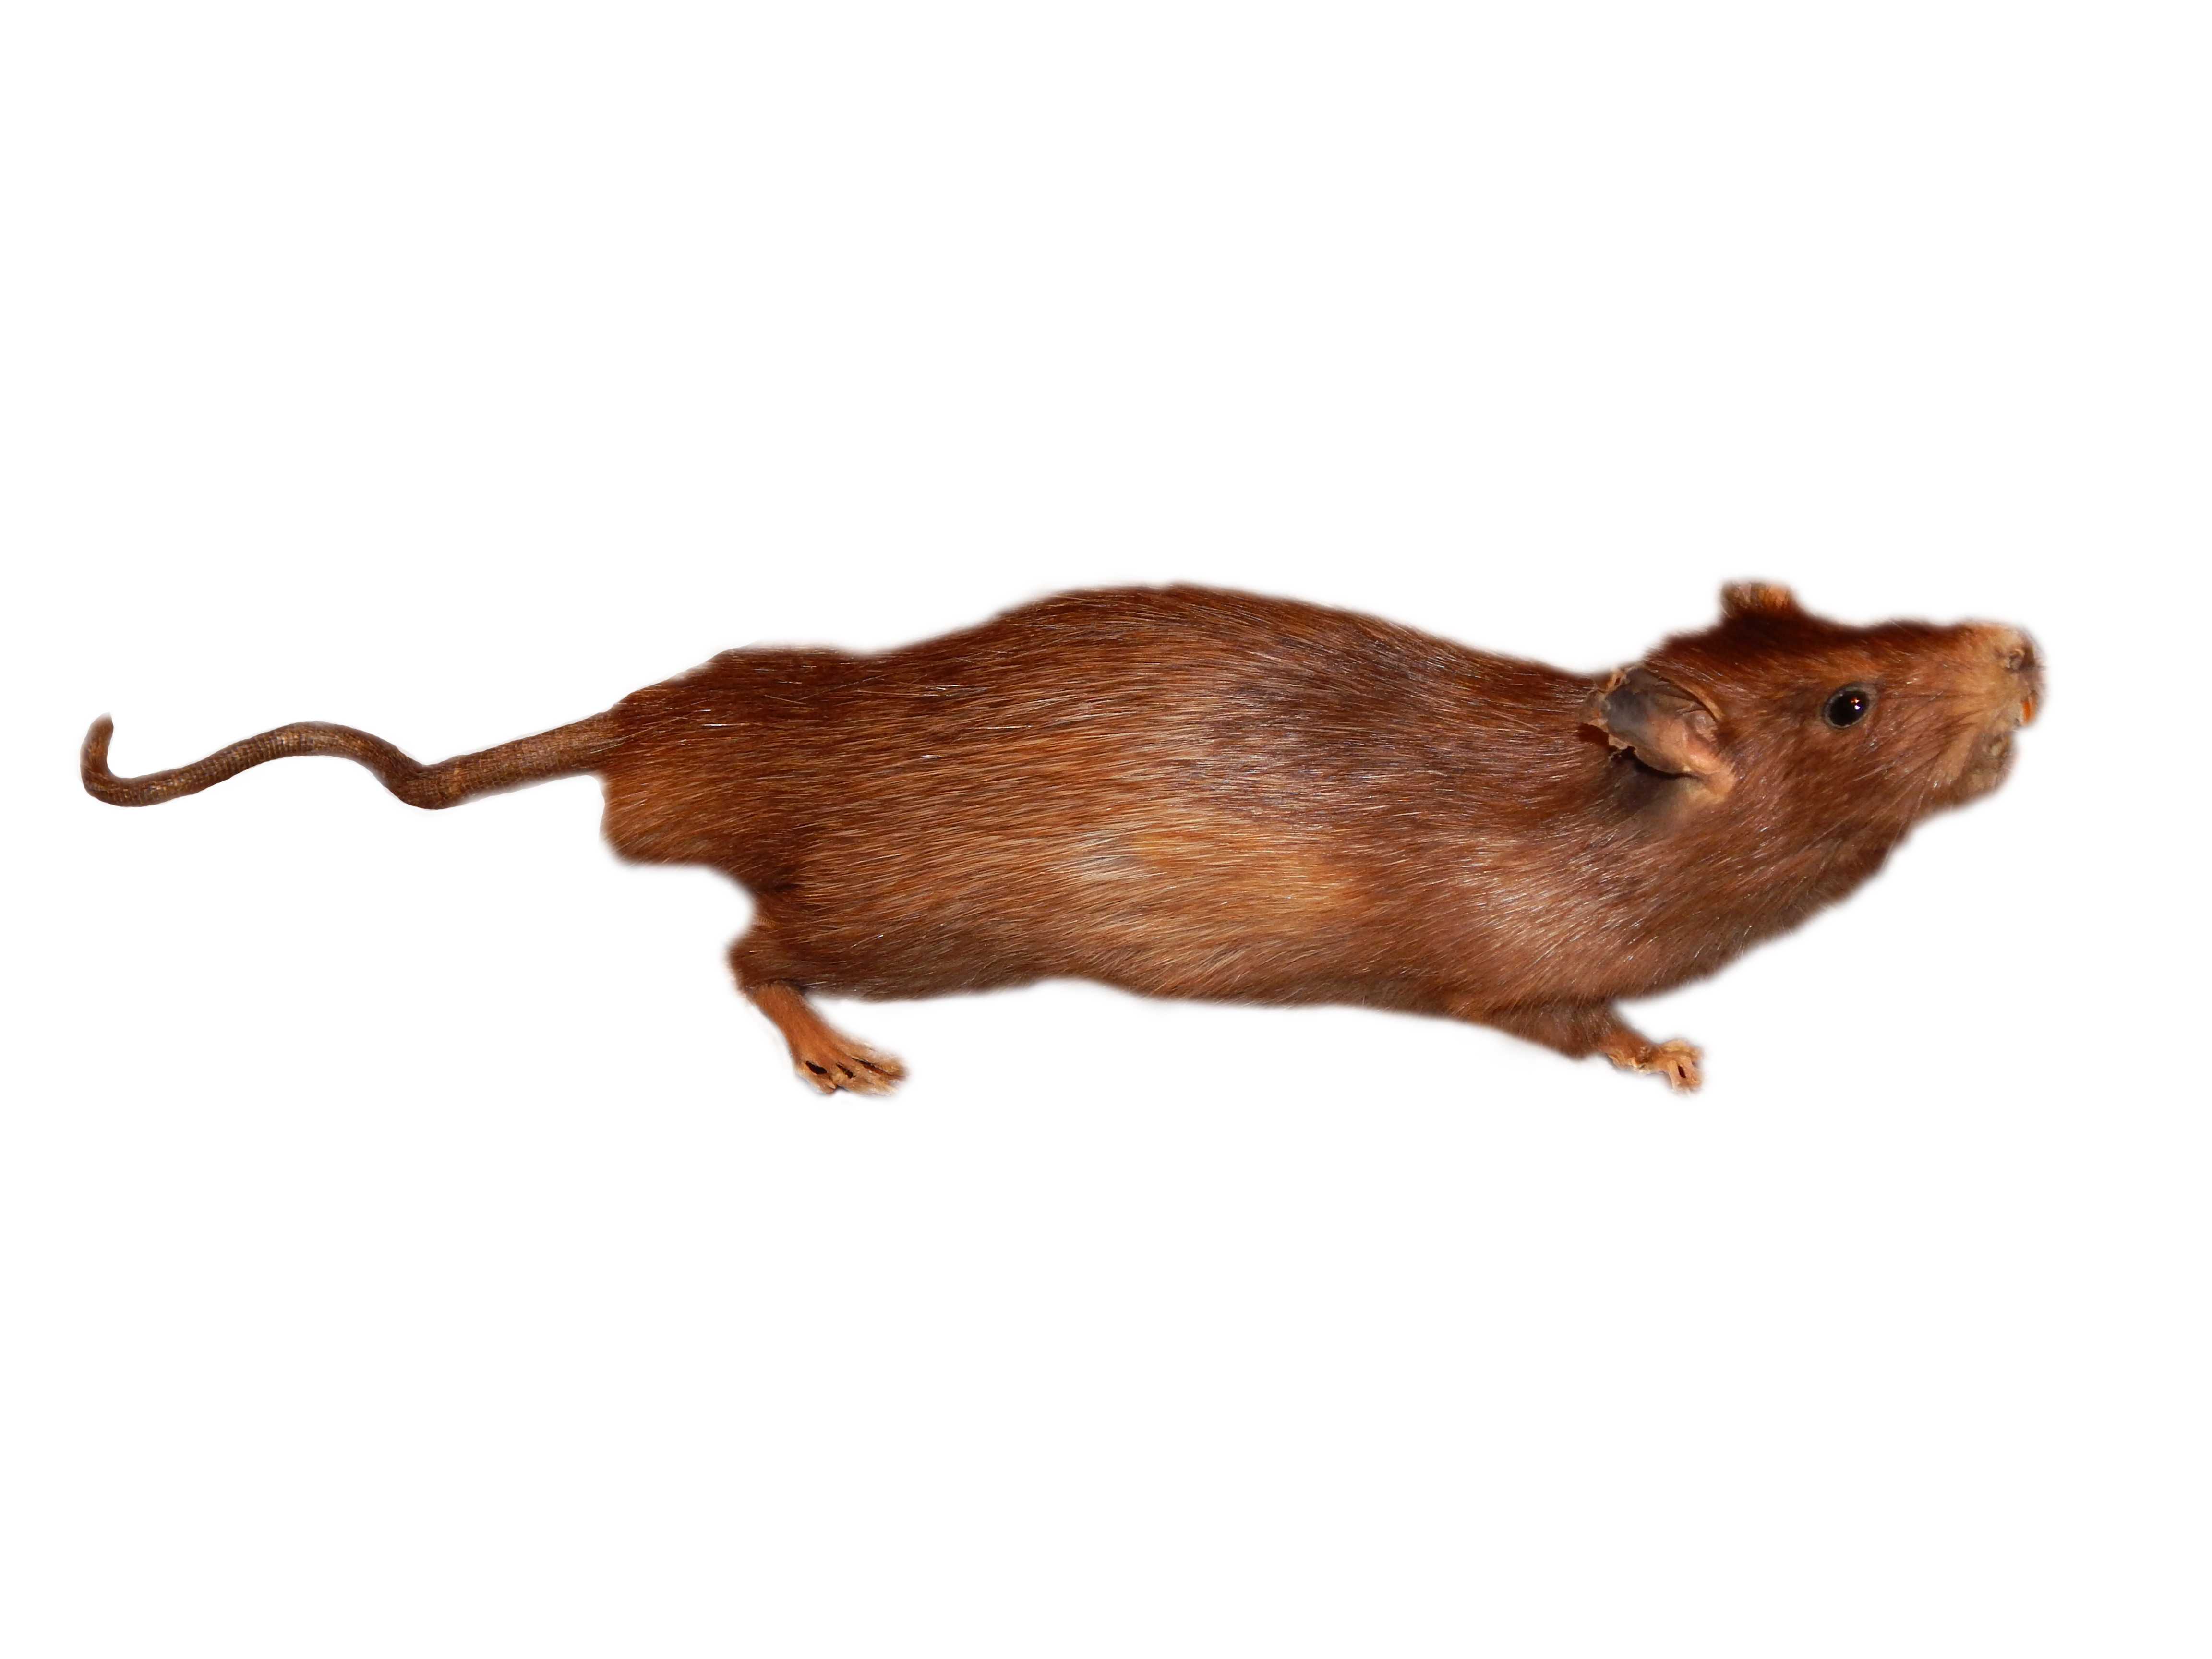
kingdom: Animalia
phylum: Chordata
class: Mammalia
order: Rodentia
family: Muridae
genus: Rattus
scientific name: Rattus rattus
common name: Black rat
